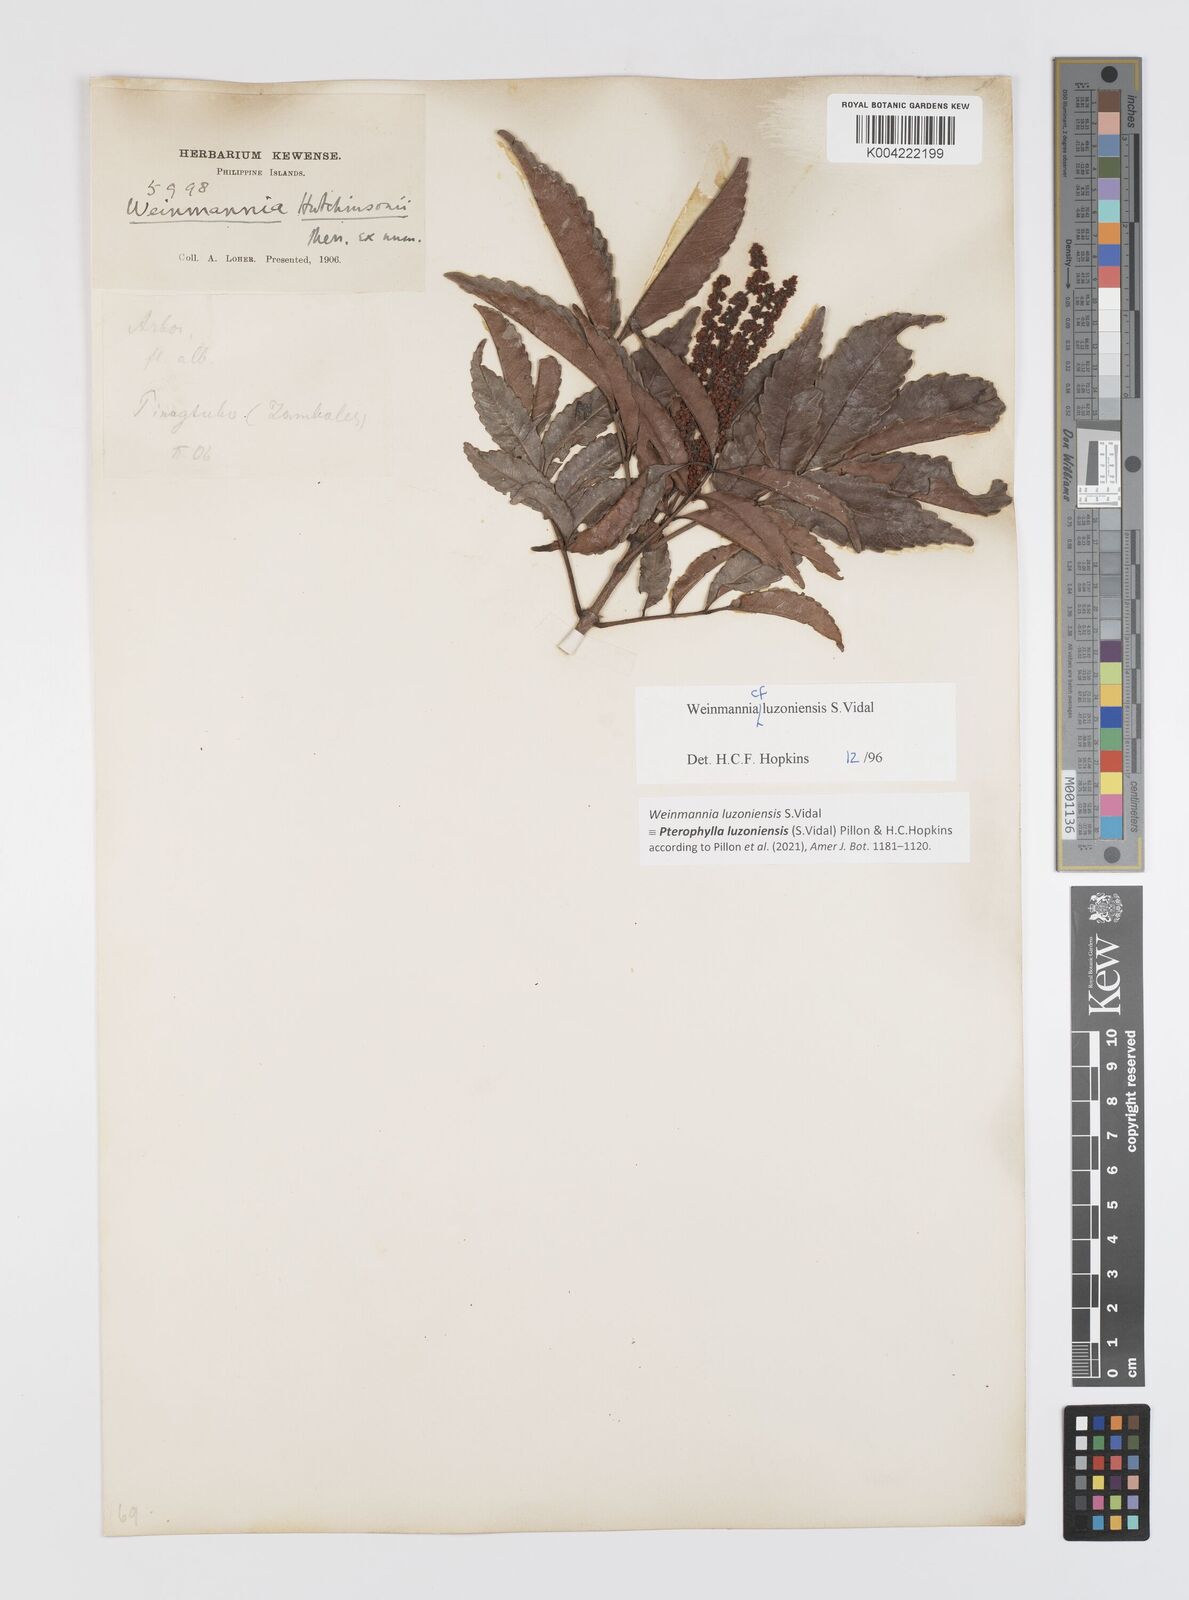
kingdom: Plantae
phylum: Tracheophyta
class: Magnoliopsida
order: Oxalidales
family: Cunoniaceae
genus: Pterophylla
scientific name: Pterophylla luzoniensis
